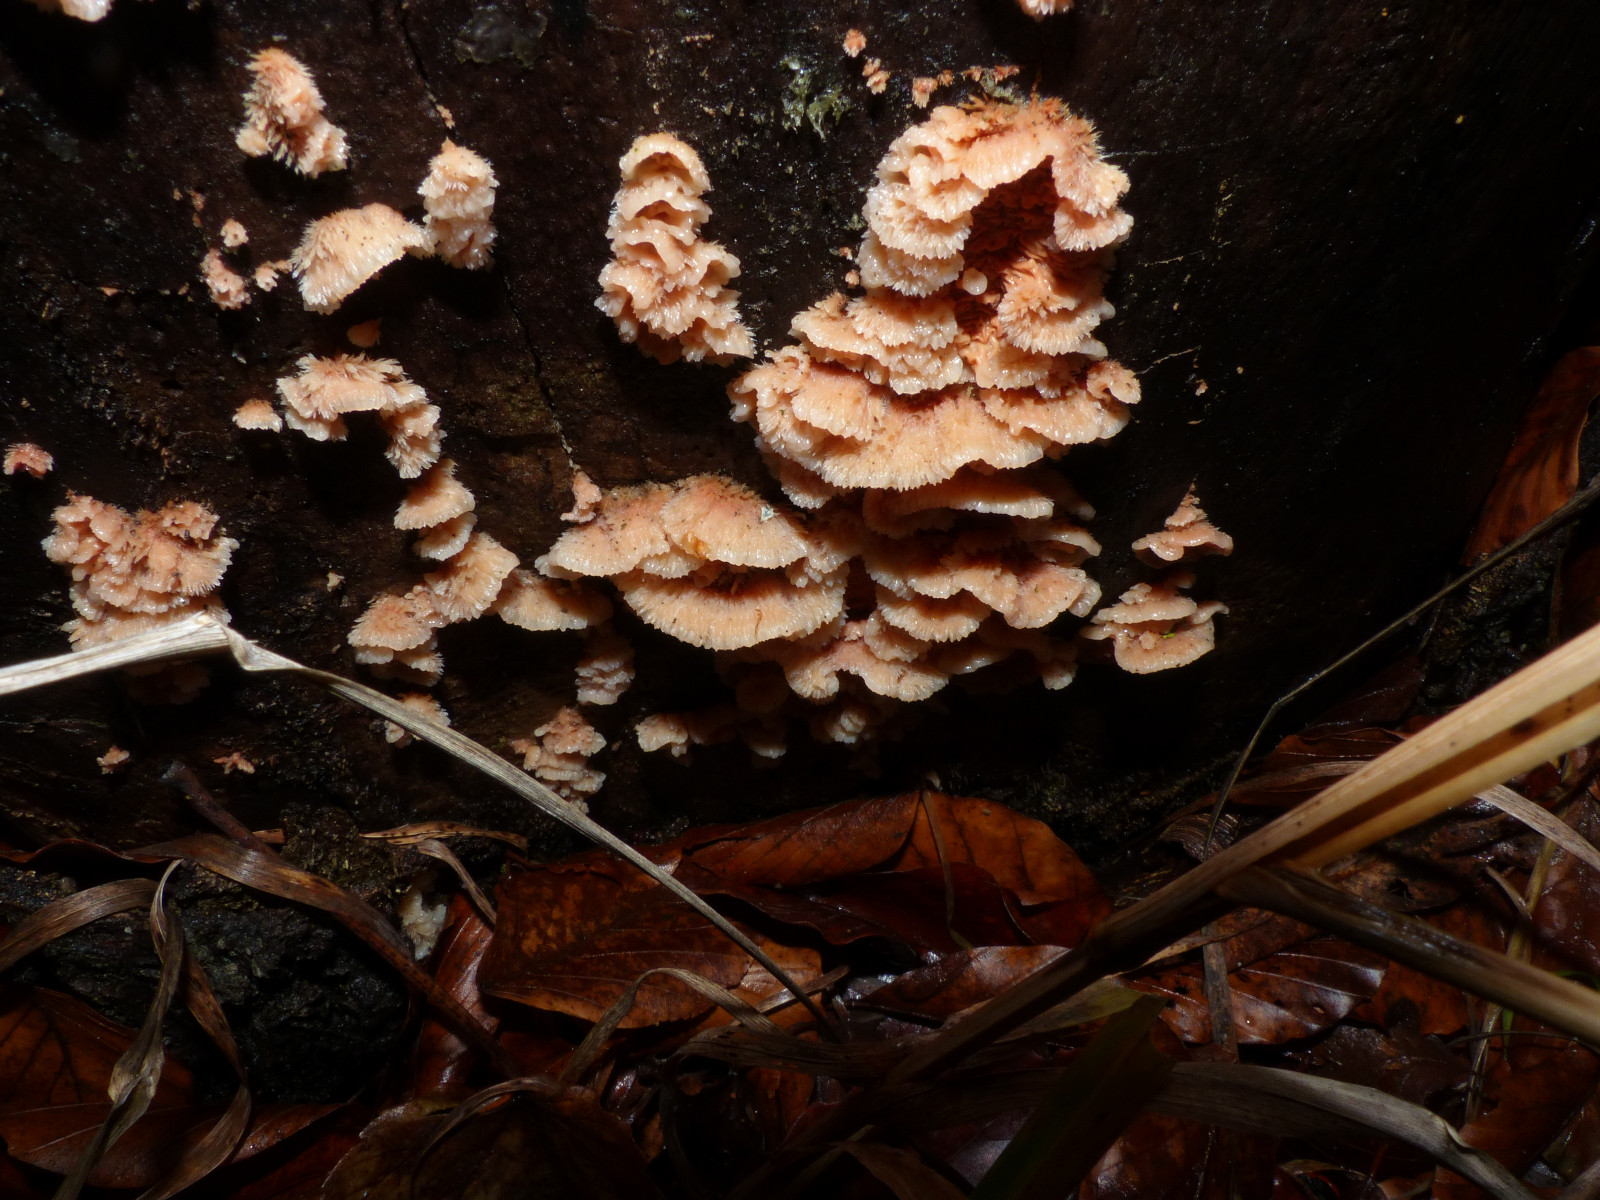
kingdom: Fungi
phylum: Basidiomycota
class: Agaricomycetes
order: Polyporales
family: Meruliaceae
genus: Phlebia
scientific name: Phlebia tremellosa
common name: bævrende åresvamp
